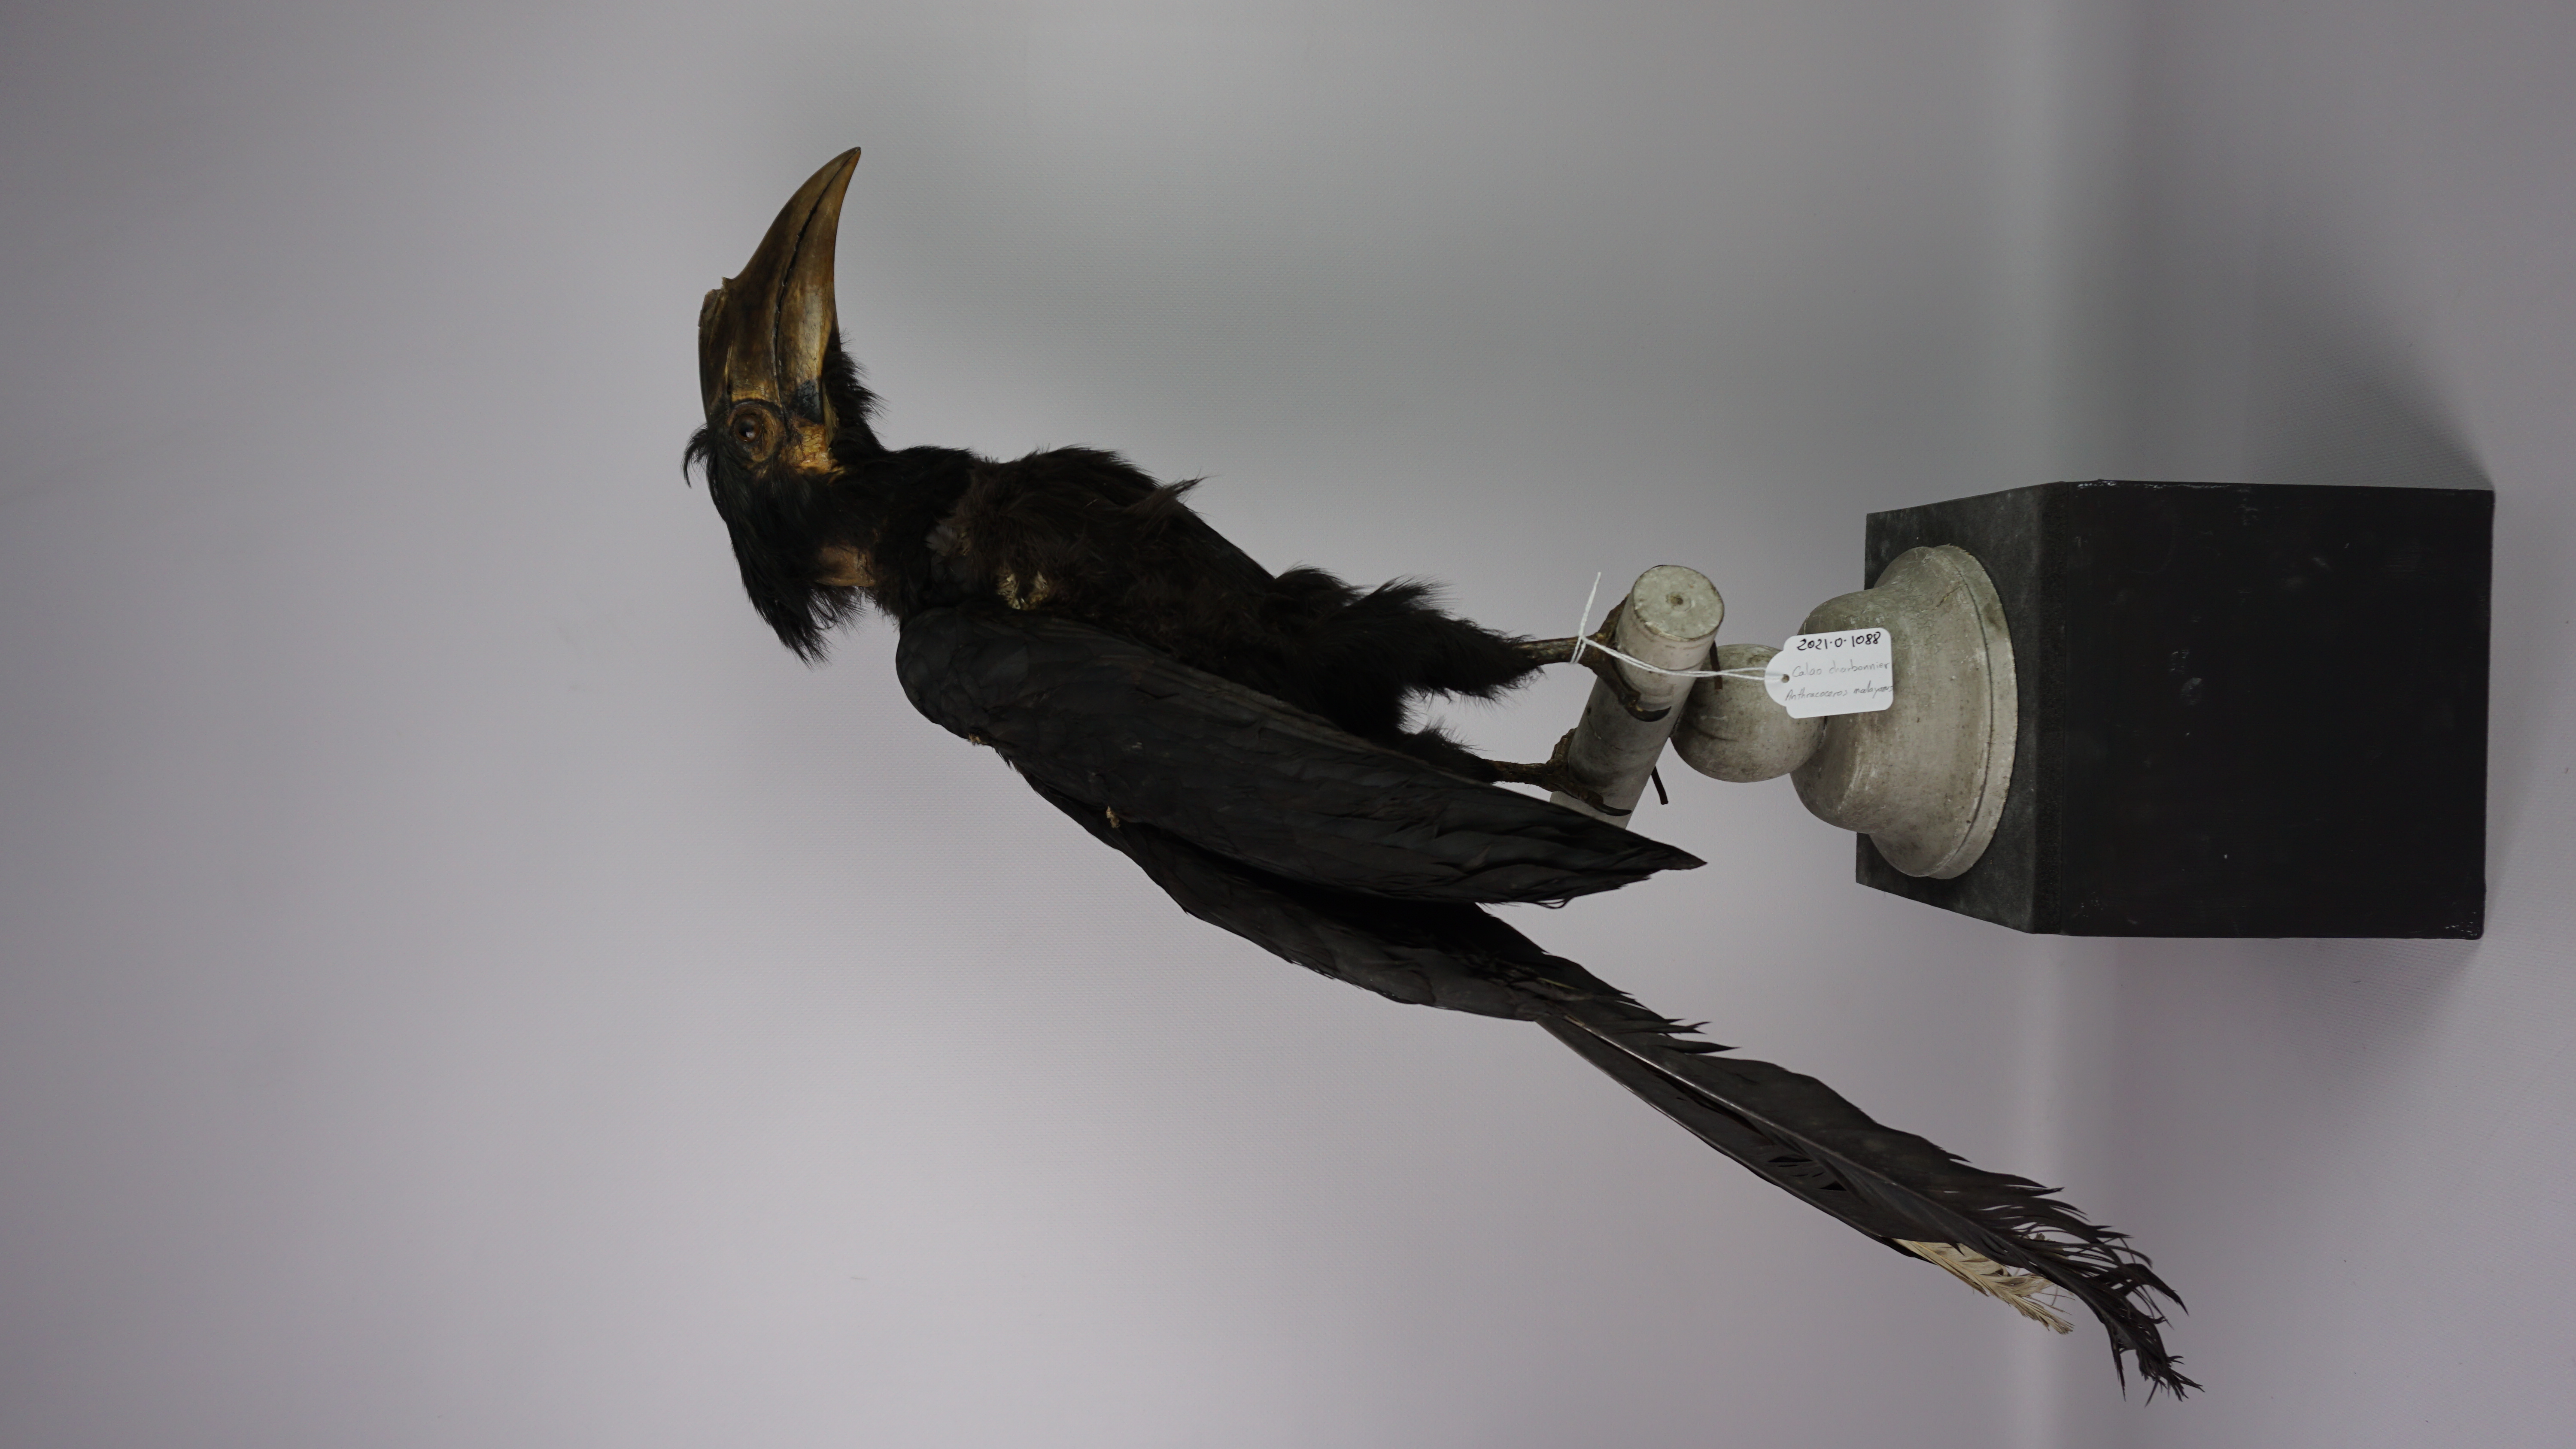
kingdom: Animalia
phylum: Chordata
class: Aves
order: Bucerotiformes
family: Bucerotidae
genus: Anthracoceros
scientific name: Anthracoceros malayanus
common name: Black hornbill
